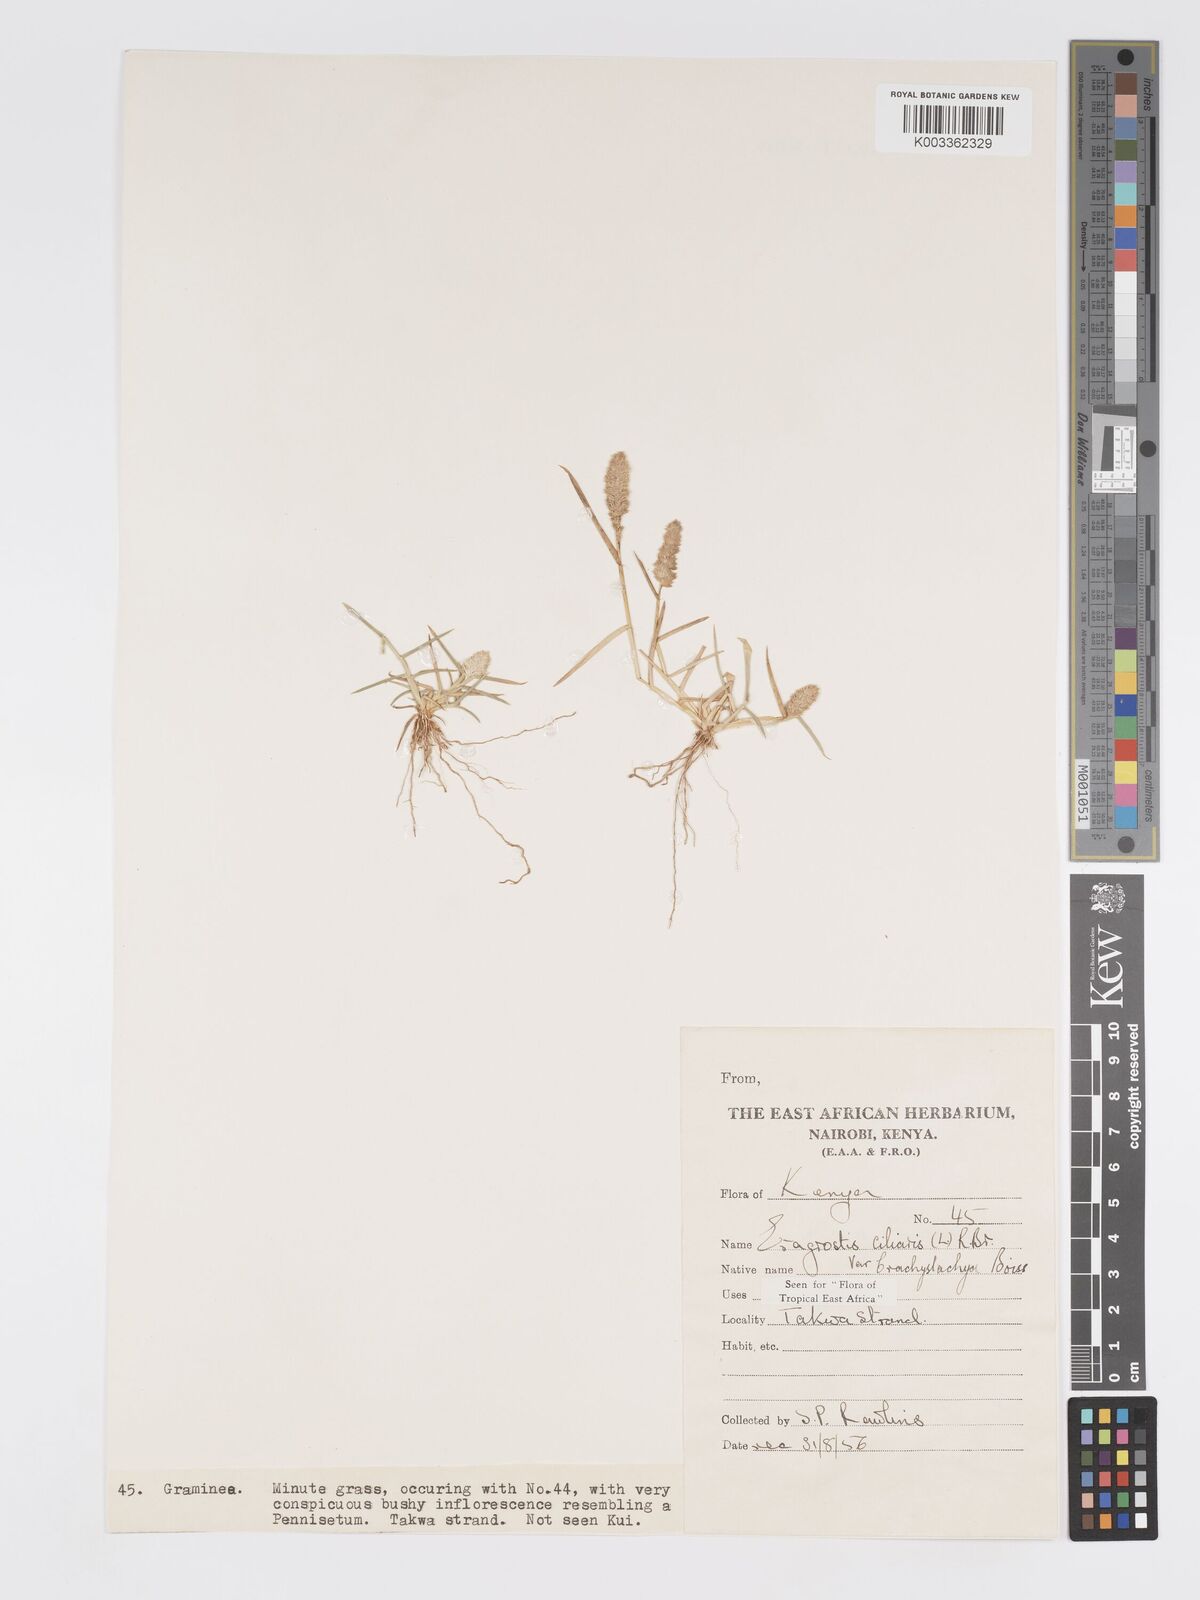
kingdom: Plantae
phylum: Tracheophyta
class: Liliopsida
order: Poales
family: Poaceae
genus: Eragrostis
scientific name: Eragrostis ciliaris
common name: Gophertail lovegrass
